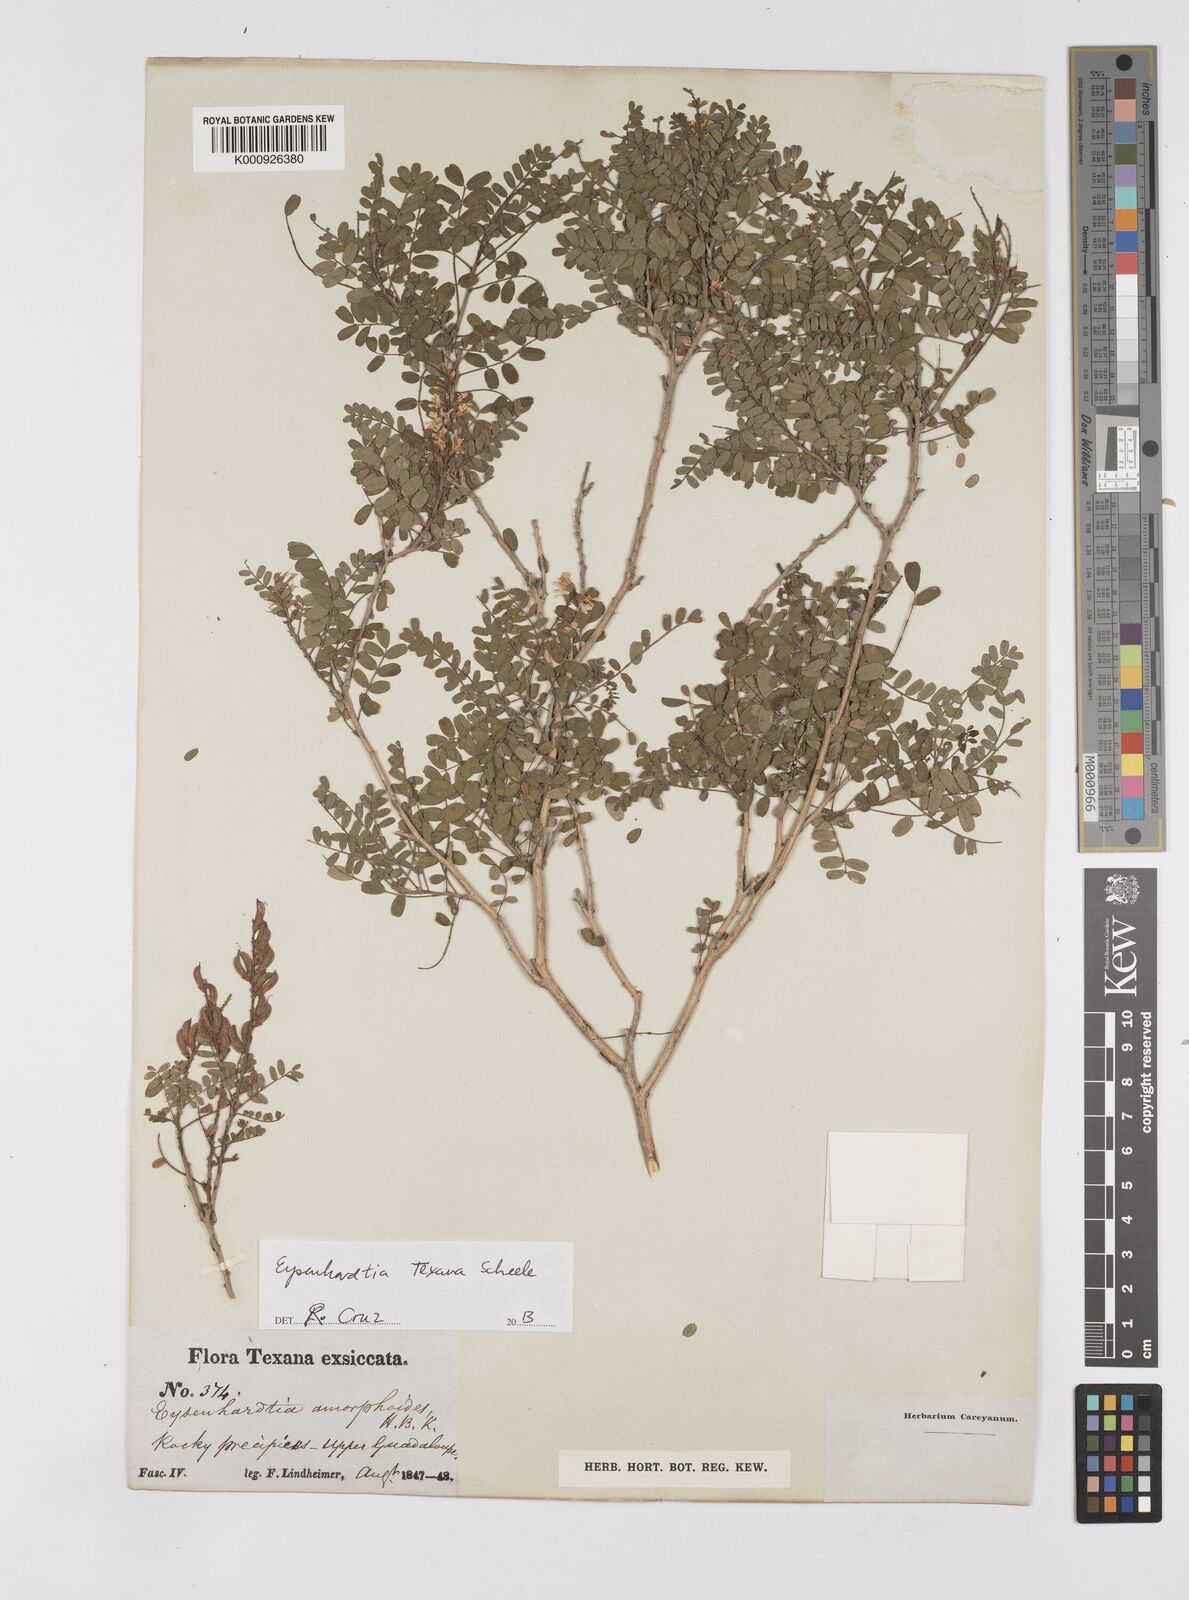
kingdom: Plantae
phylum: Tracheophyta
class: Magnoliopsida
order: Fabales
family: Fabaceae
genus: Eysenhardtia
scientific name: Eysenhardtia texana
